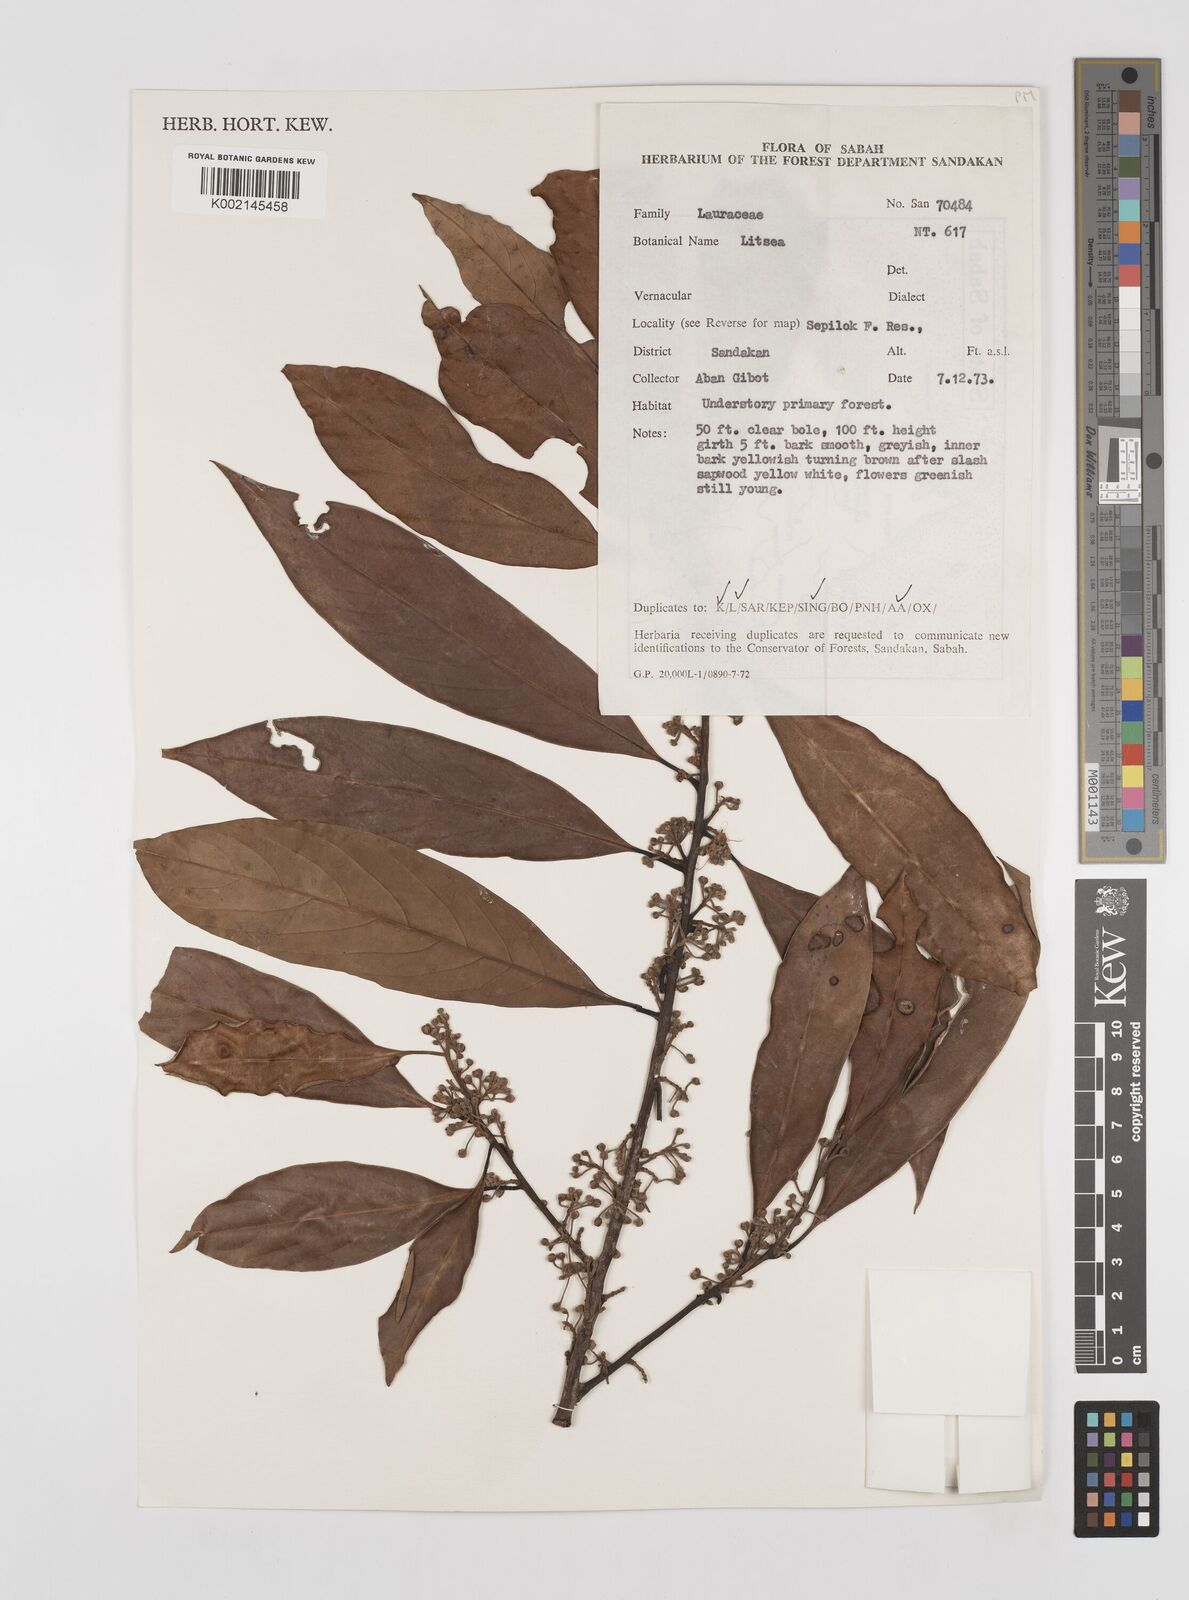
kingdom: Plantae
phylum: Tracheophyta
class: Magnoliopsida
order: Laurales
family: Lauraceae
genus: Litsea
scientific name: Litsea
